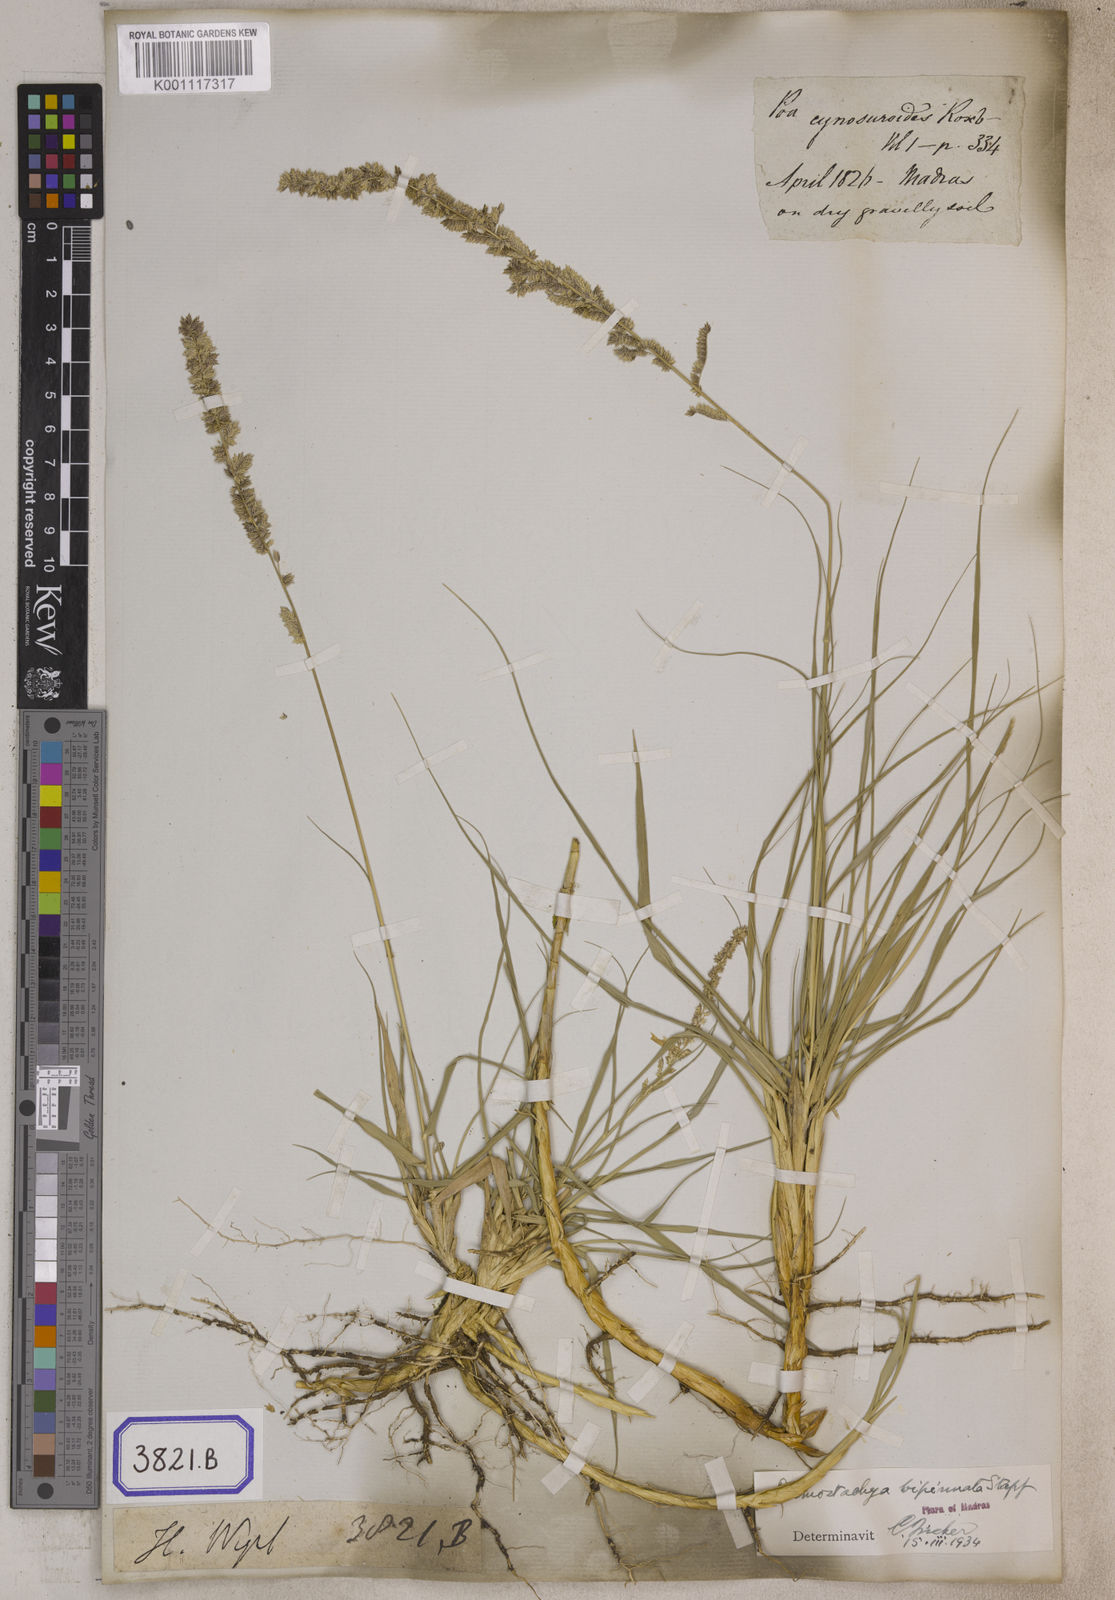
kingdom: Plantae
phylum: Tracheophyta
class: Liliopsida
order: Poales
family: Poaceae
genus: Eragrostis
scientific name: Eragrostis
